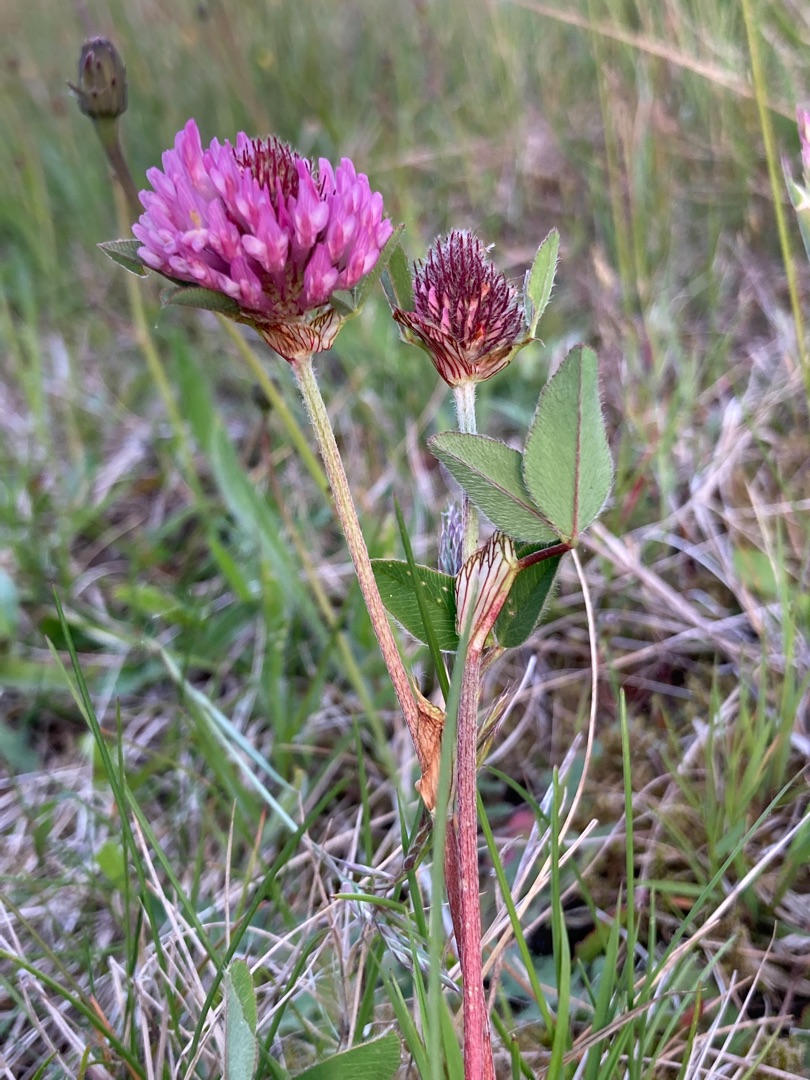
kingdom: Plantae
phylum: Tracheophyta
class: Magnoliopsida
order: Fabales
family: Fabaceae
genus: Trifolium
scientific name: Trifolium pratense
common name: Rød-kløver
